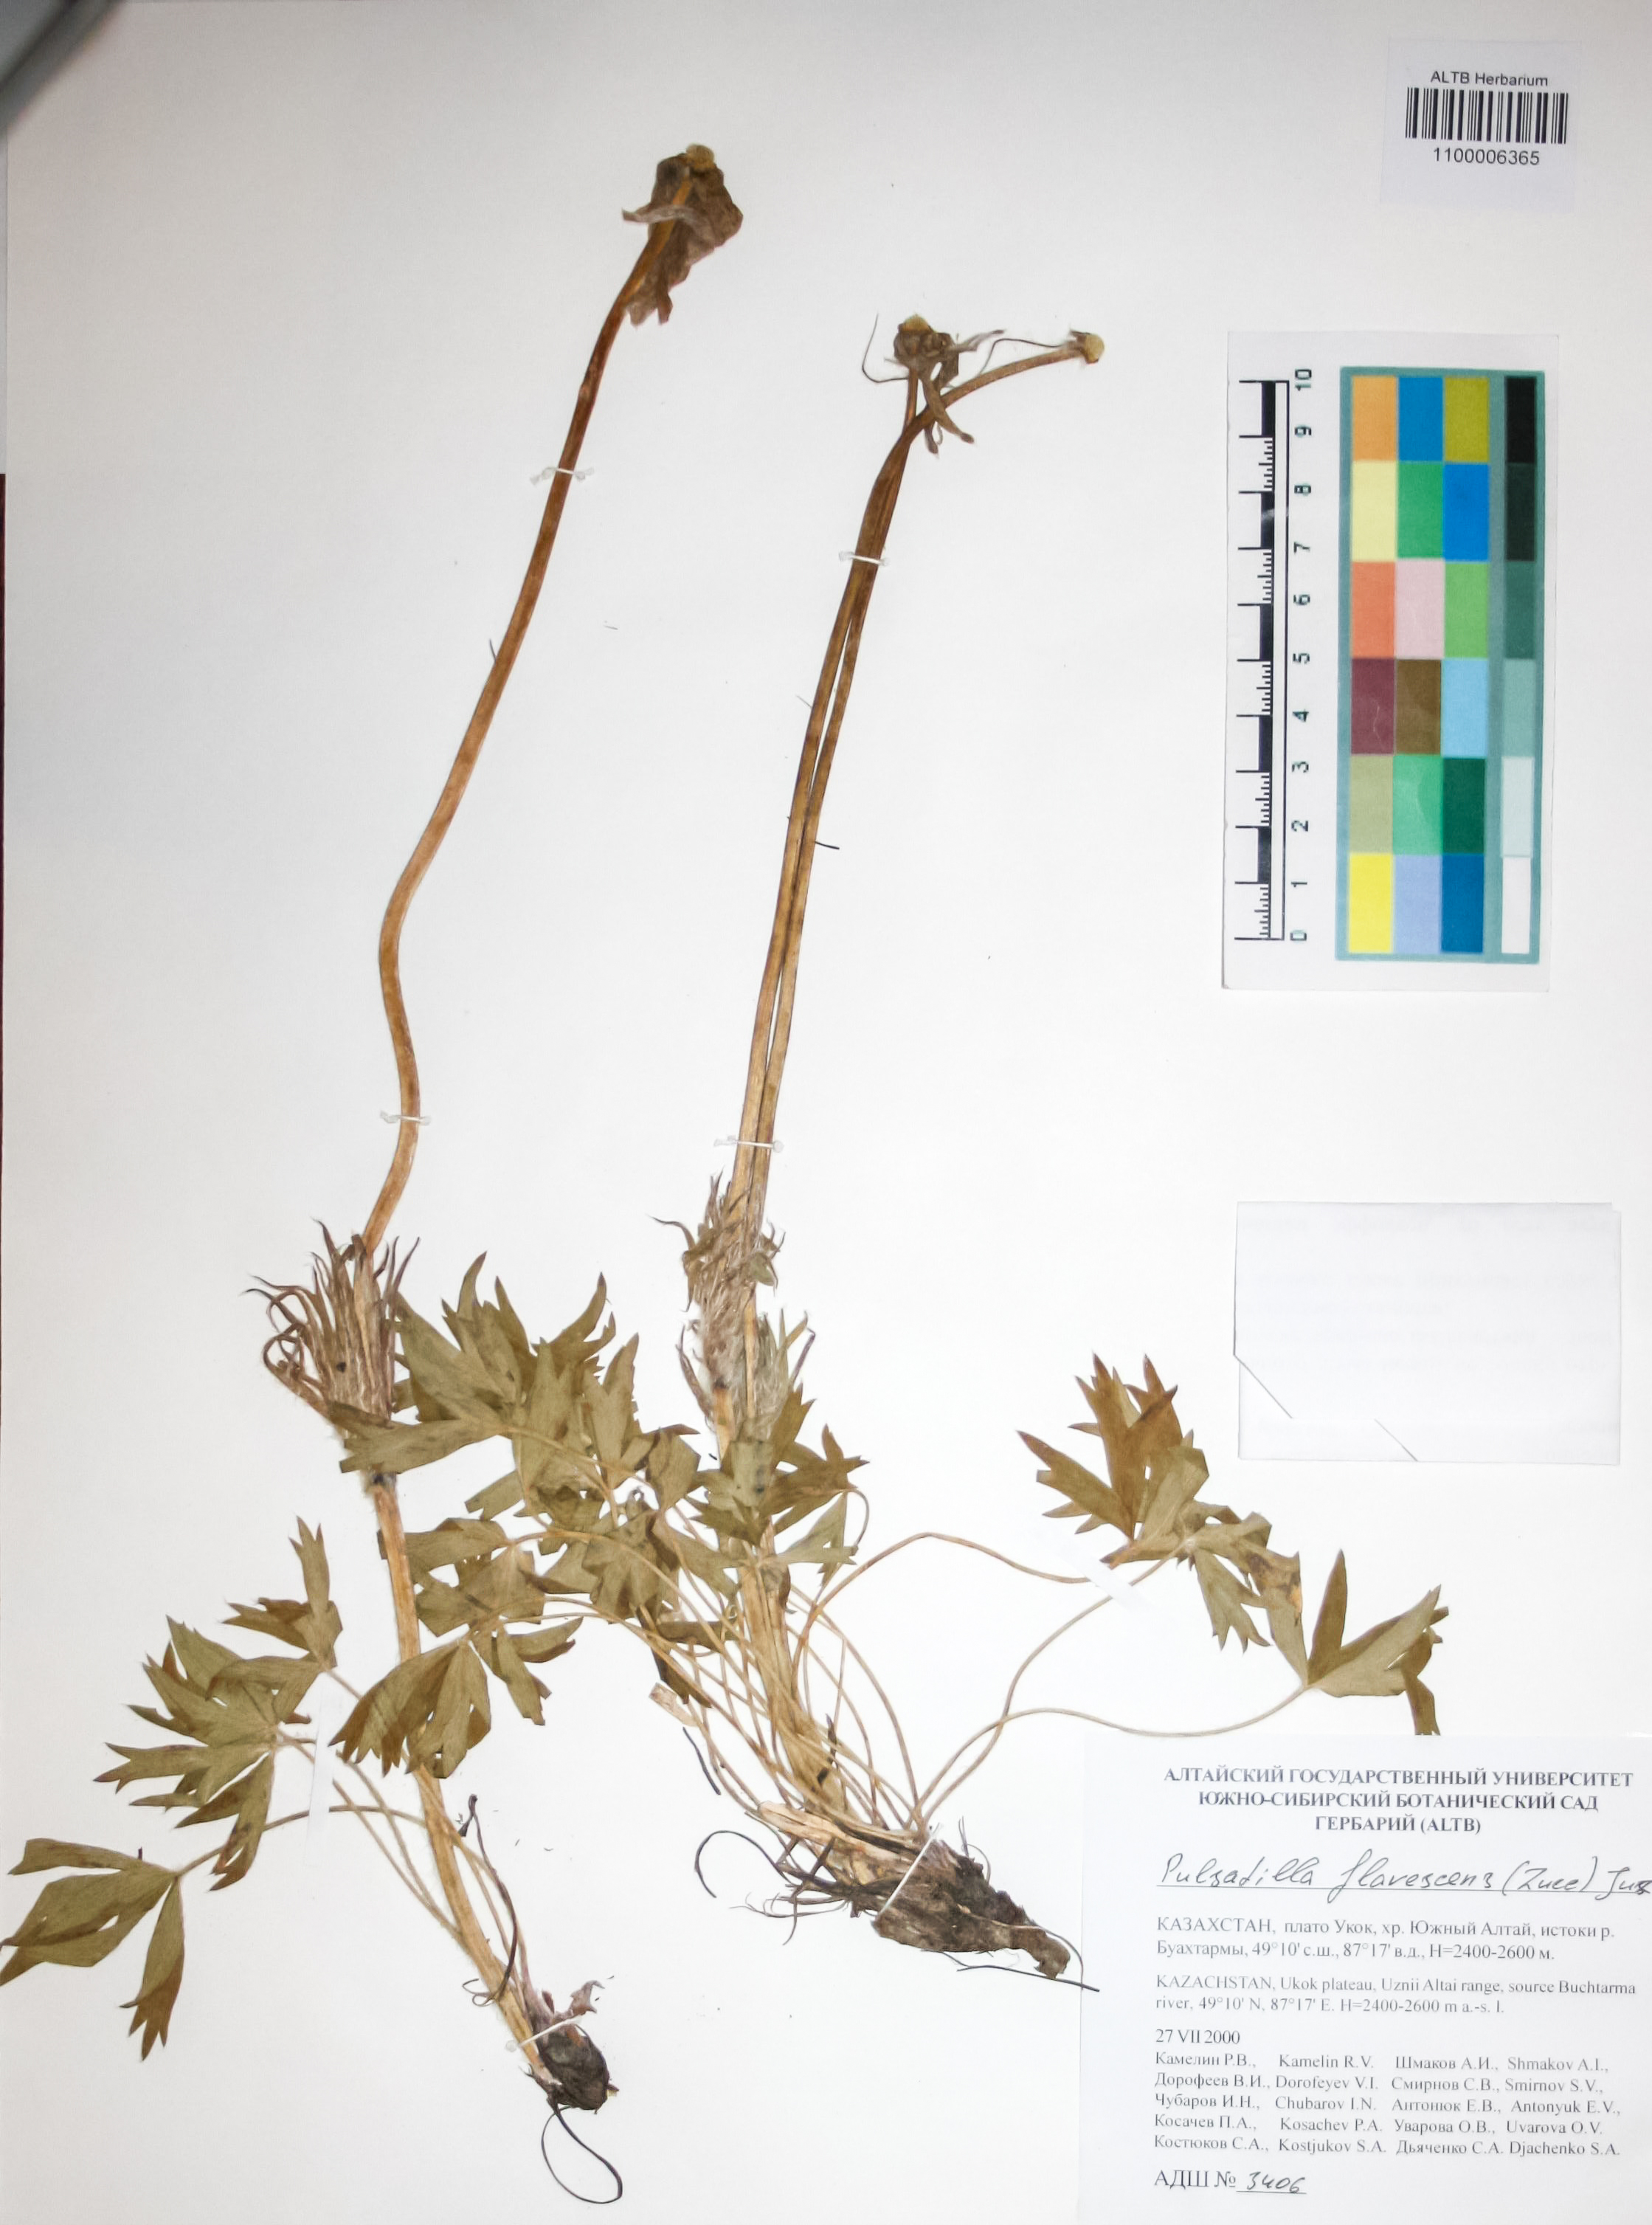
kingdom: Plantae
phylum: Tracheophyta
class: Magnoliopsida
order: Ranunculales
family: Ranunculaceae
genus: Pulsatilla
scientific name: Pulsatilla patens
